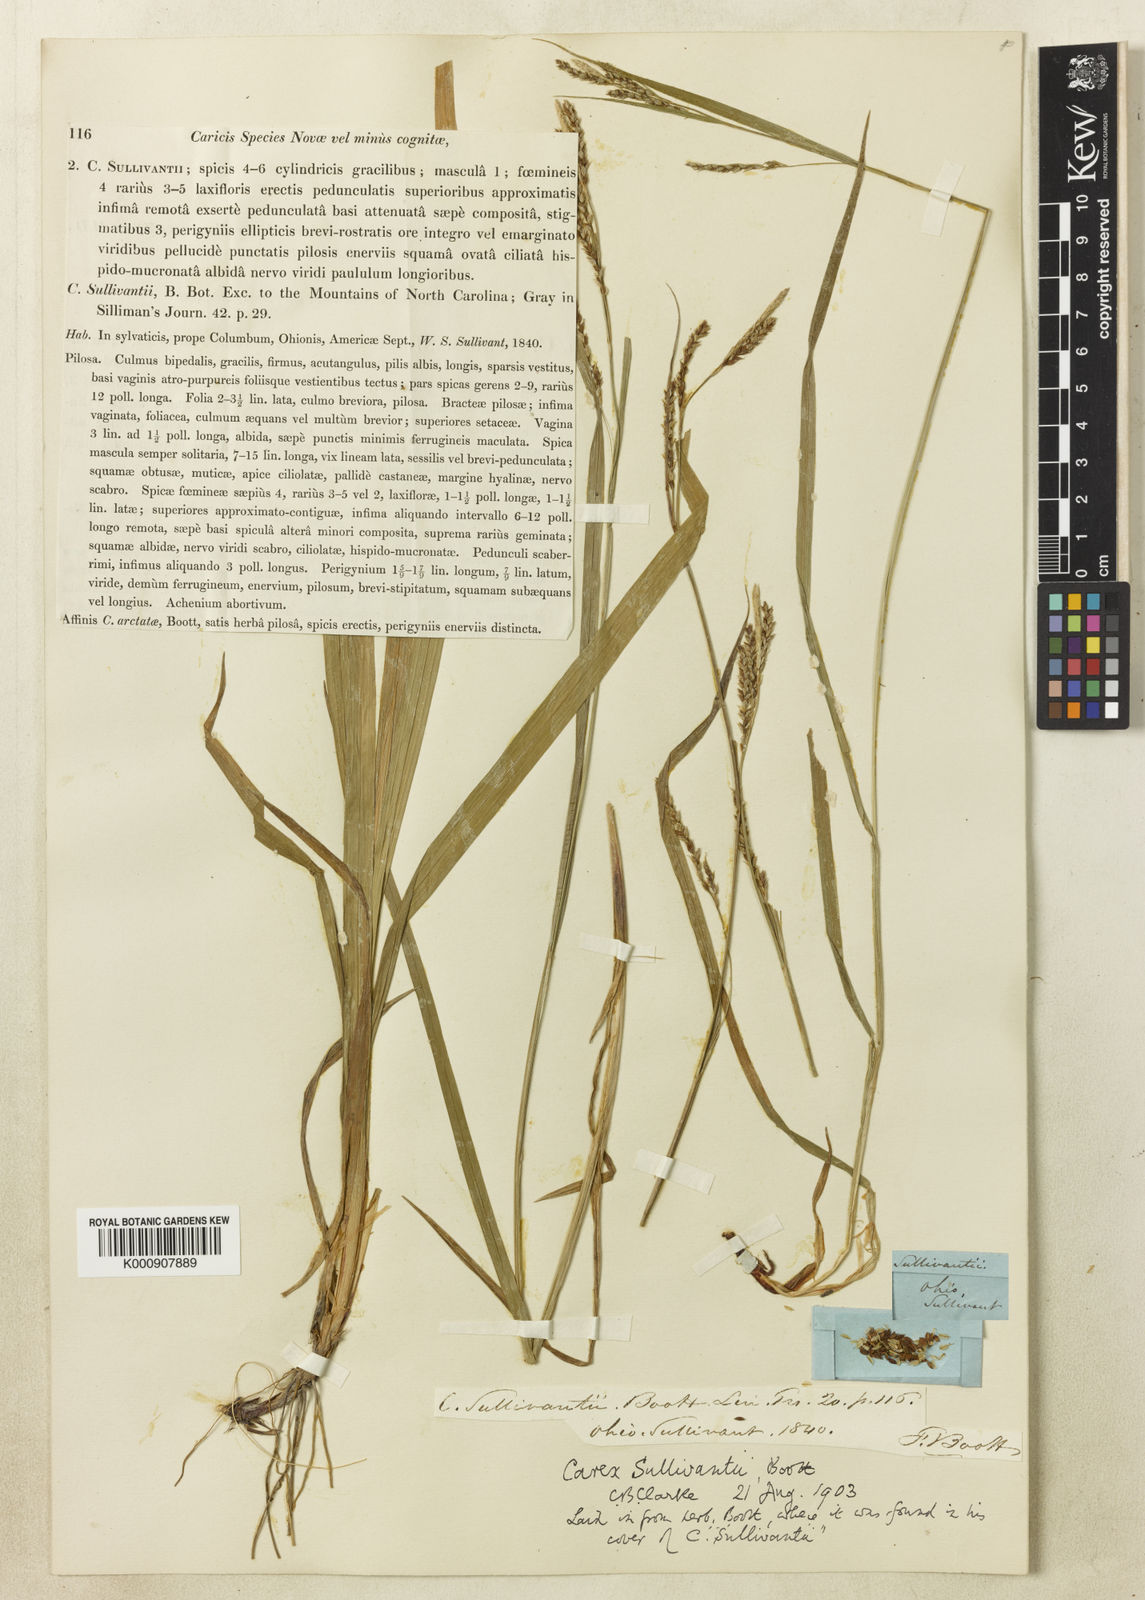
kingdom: Plantae
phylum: Tracheophyta
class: Liliopsida
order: Poales
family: Cyperaceae
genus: Carex
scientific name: Carex sullivantii
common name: Sullivant's sedge
